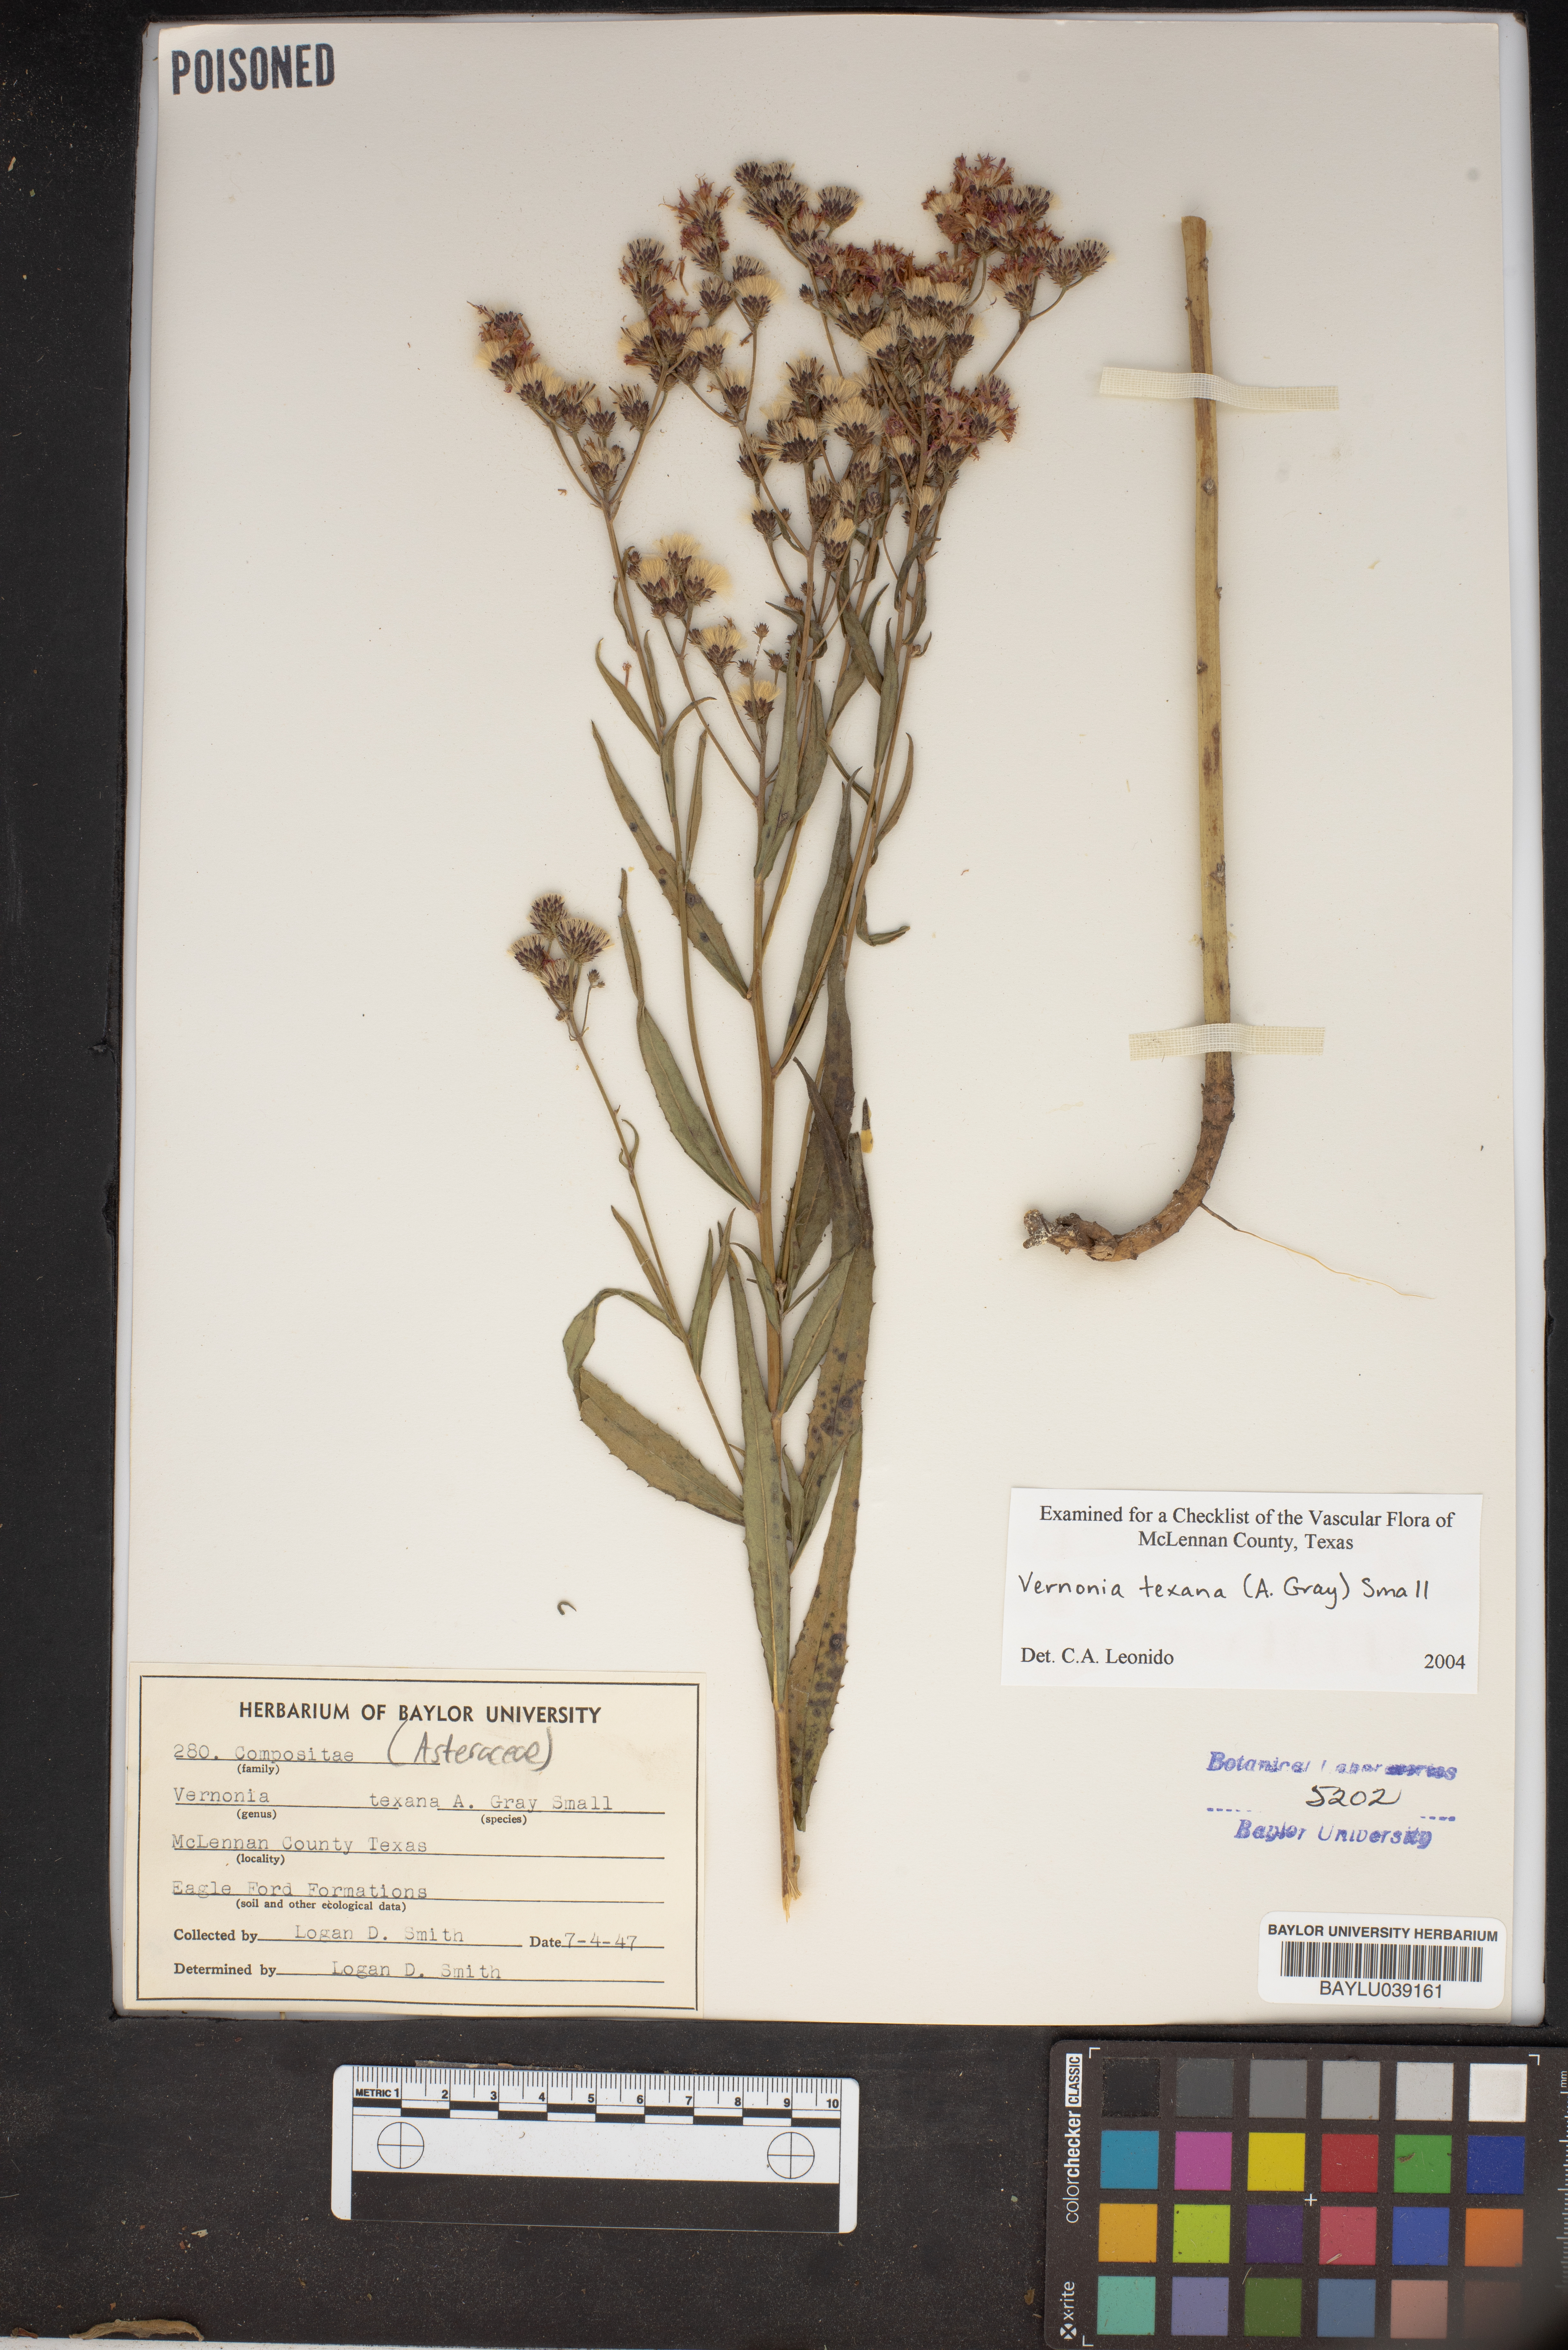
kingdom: Plantae
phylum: Tracheophyta
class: Magnoliopsida
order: Asterales
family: Asteraceae
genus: Vernonia
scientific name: Vernonia texana
